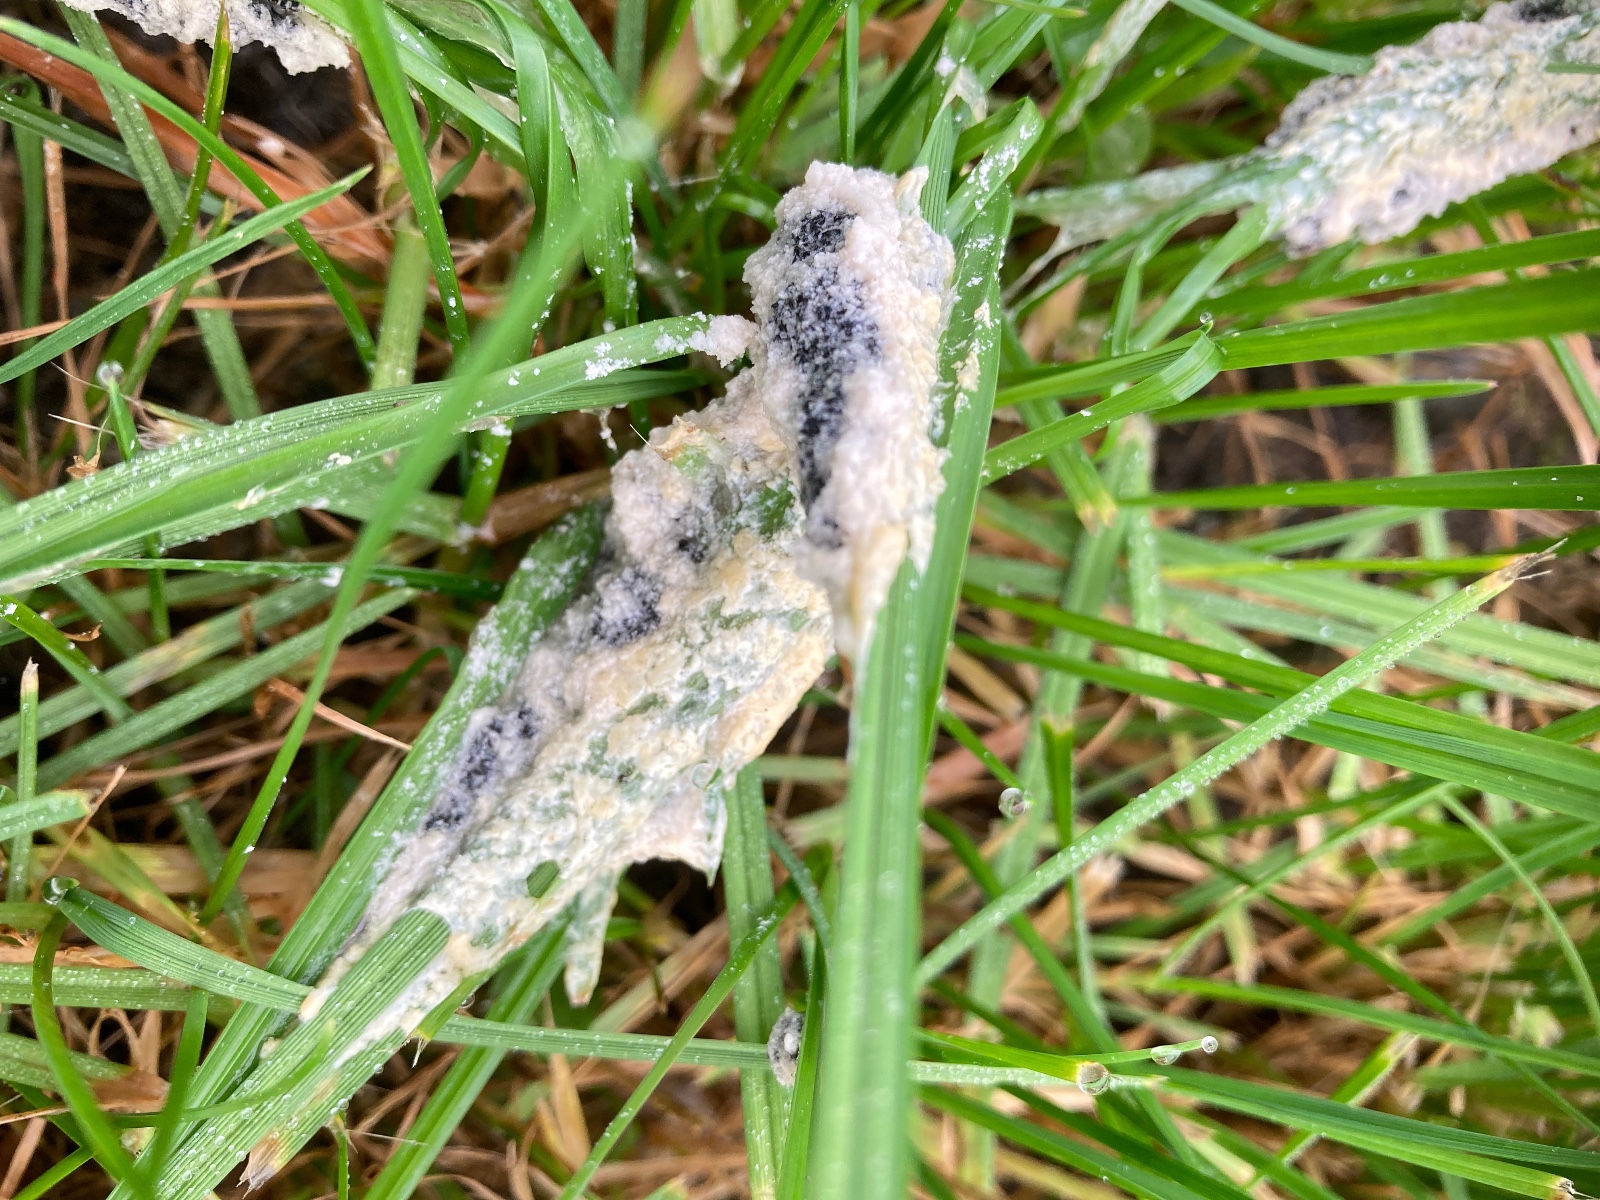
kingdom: Protozoa
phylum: Mycetozoa
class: Myxomycetes
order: Physarales
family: Physaraceae
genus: Didymium
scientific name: Didymium
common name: urteskum
